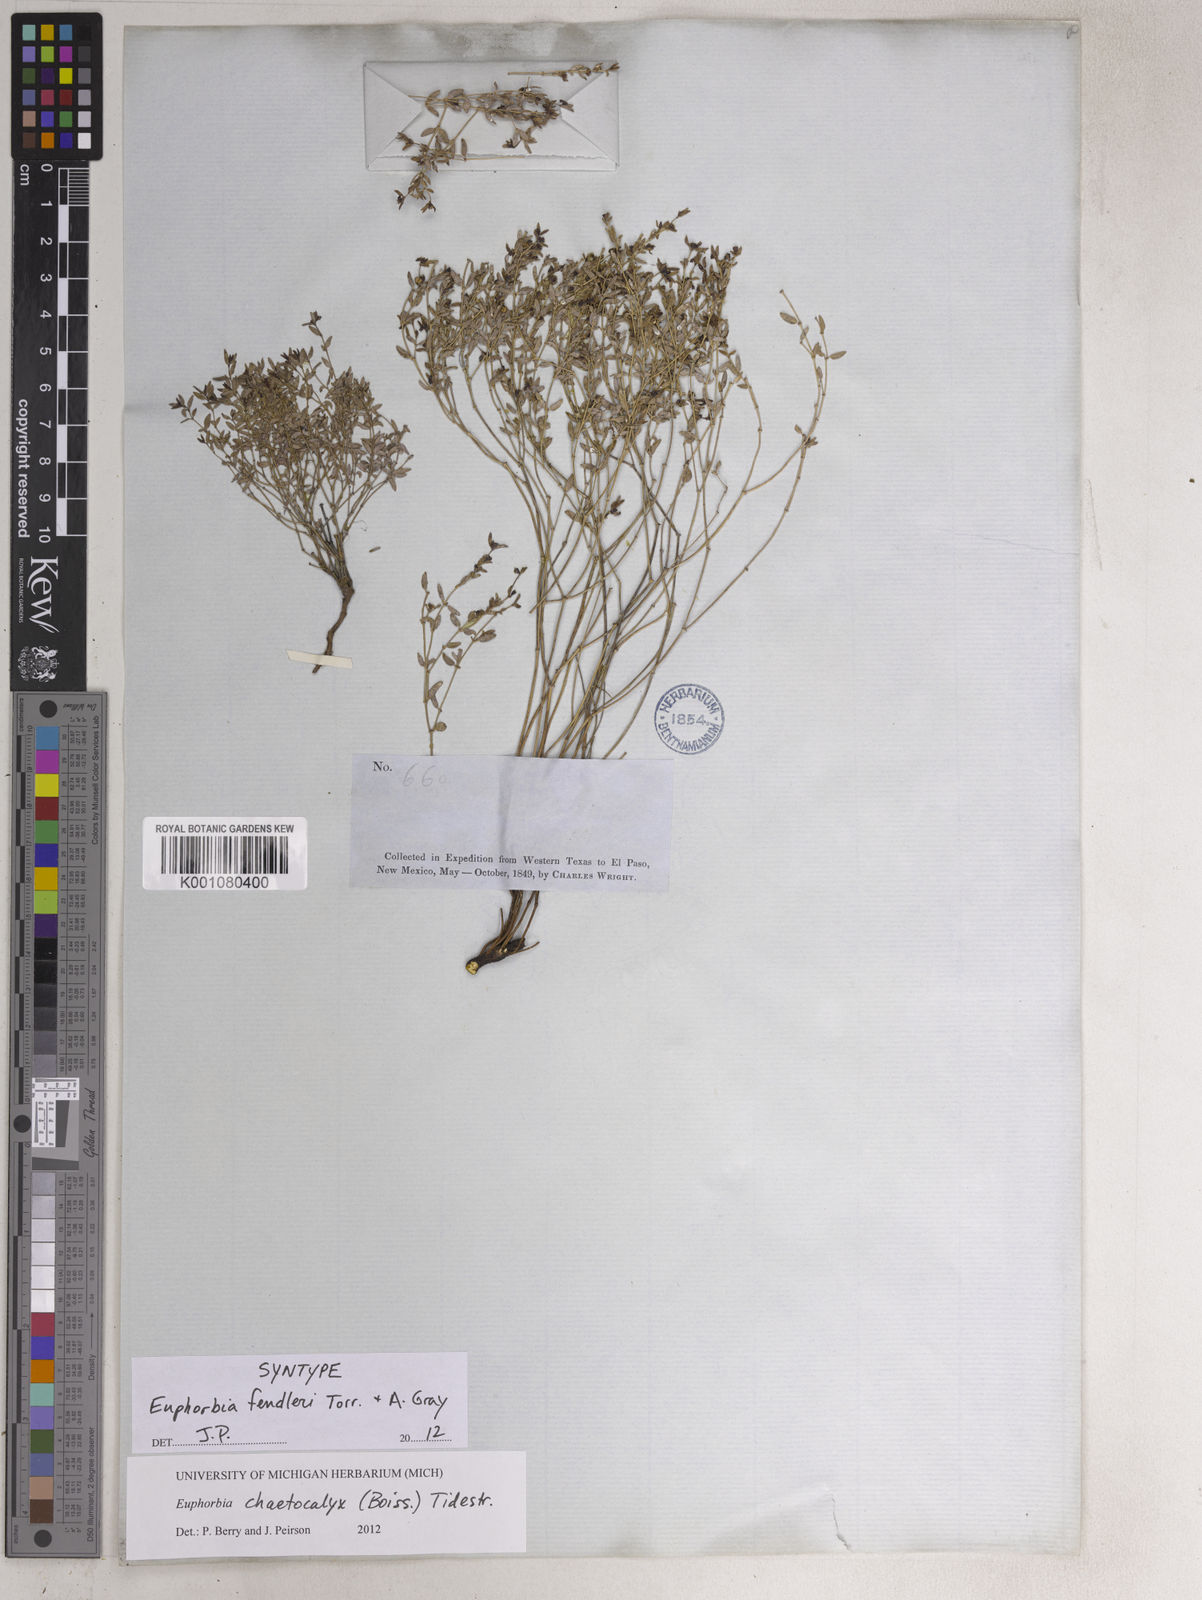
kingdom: Plantae
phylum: Tracheophyta
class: Magnoliopsida
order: Malpighiales
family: Euphorbiaceae
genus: Euphorbia
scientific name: Euphorbia chaetocalyx
